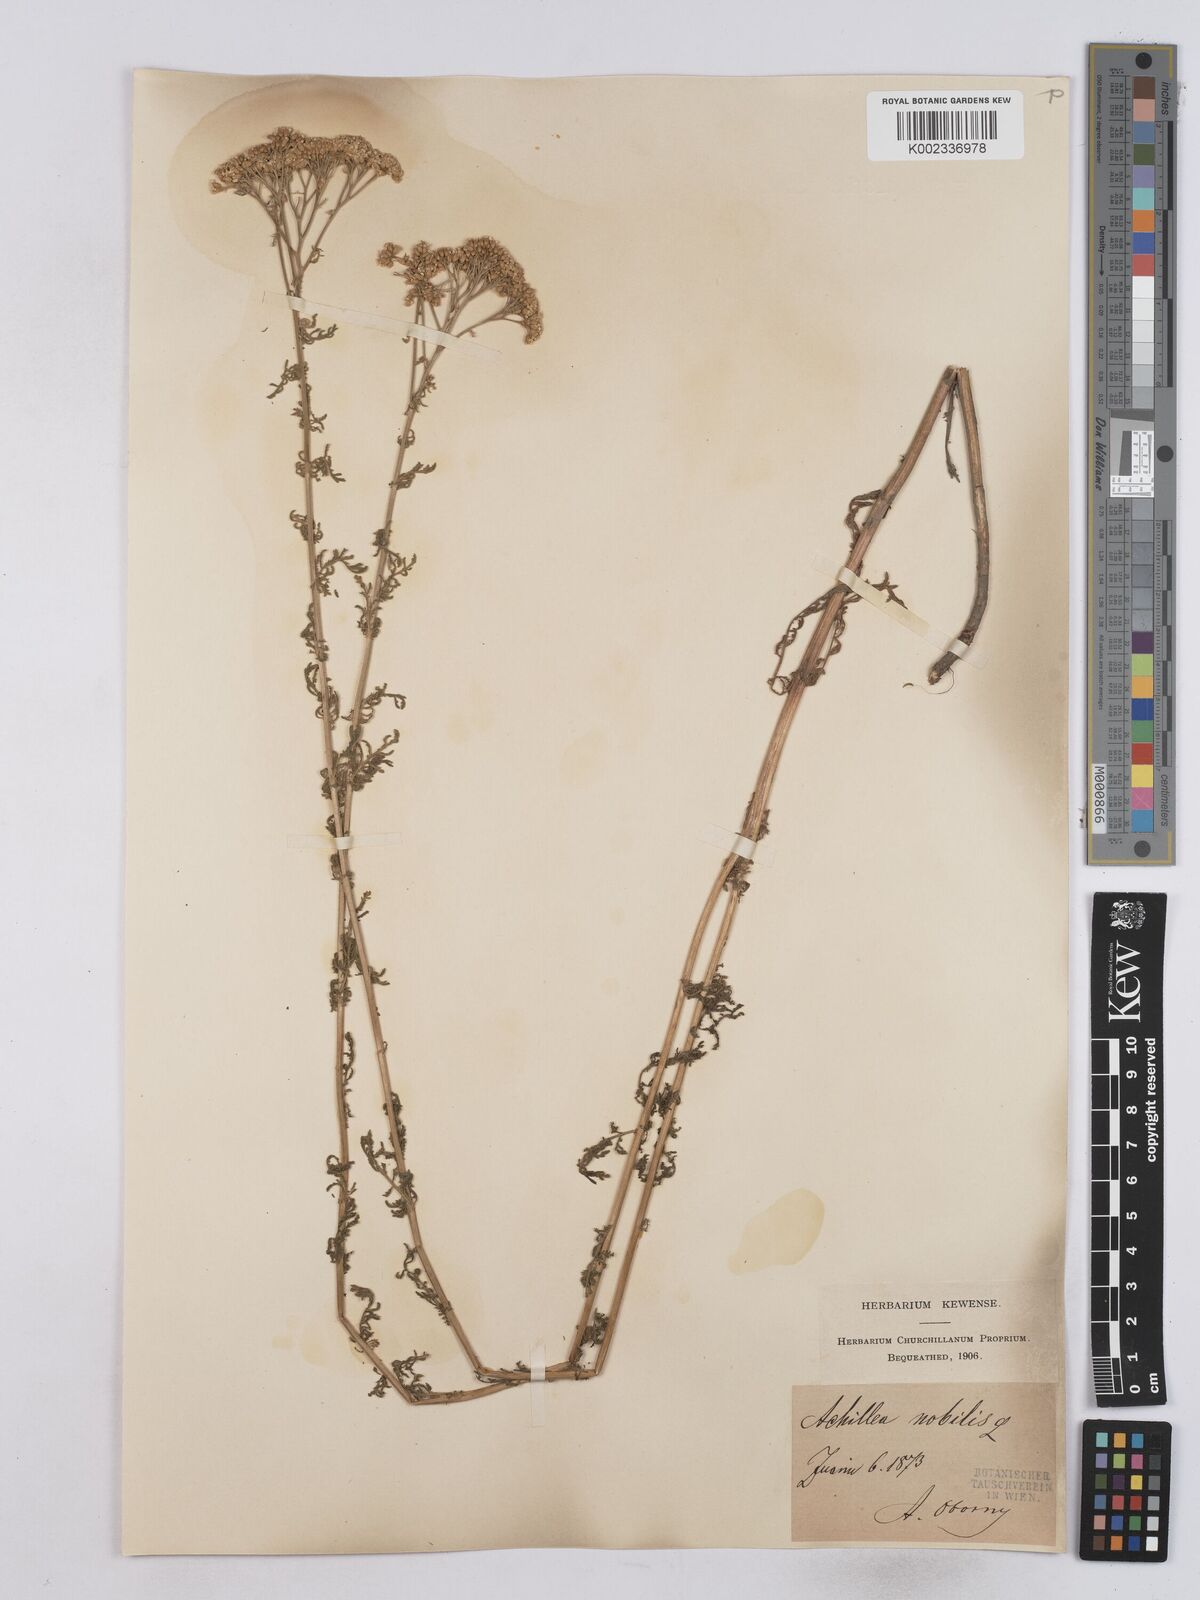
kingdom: Plantae
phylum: Tracheophyta
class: Magnoliopsida
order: Asterales
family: Asteraceae
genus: Achillea
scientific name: Achillea nobilis
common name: Noble yarrow
